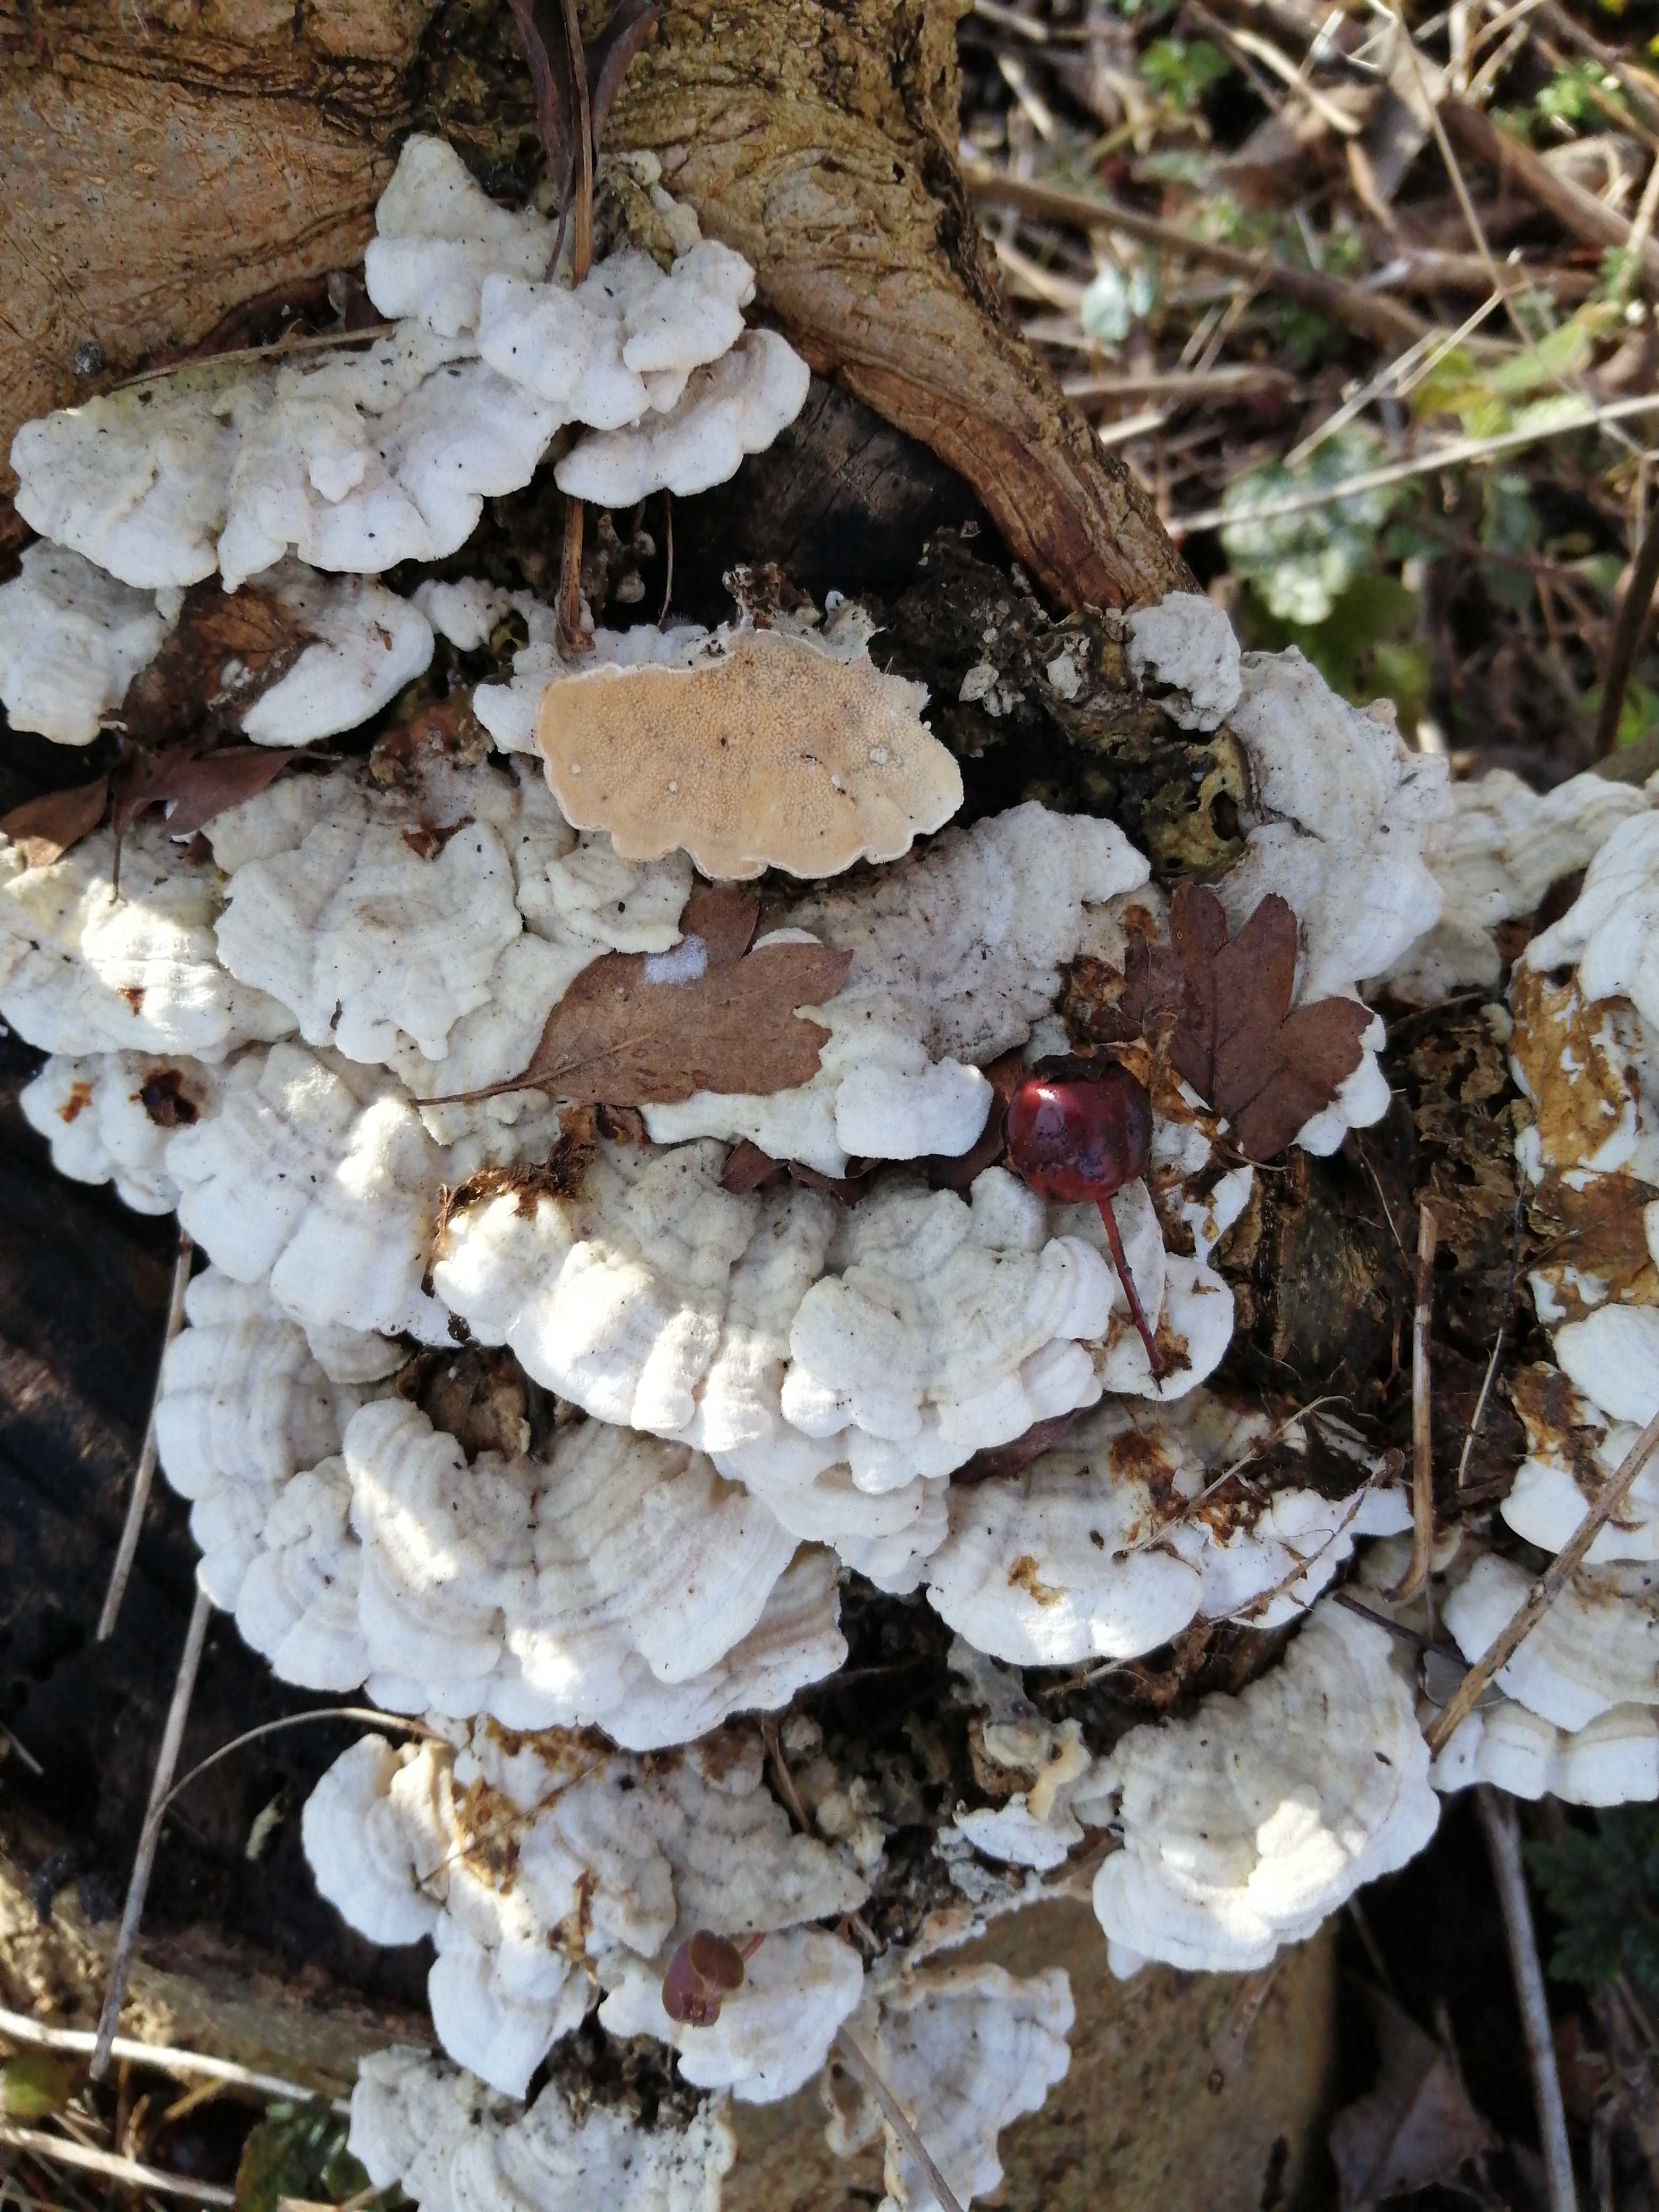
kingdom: Fungi
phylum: Basidiomycota
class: Agaricomycetes
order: Polyporales
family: Irpicaceae
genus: Byssomerulius
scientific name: Byssomerulius corium
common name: læder-åresvamp
